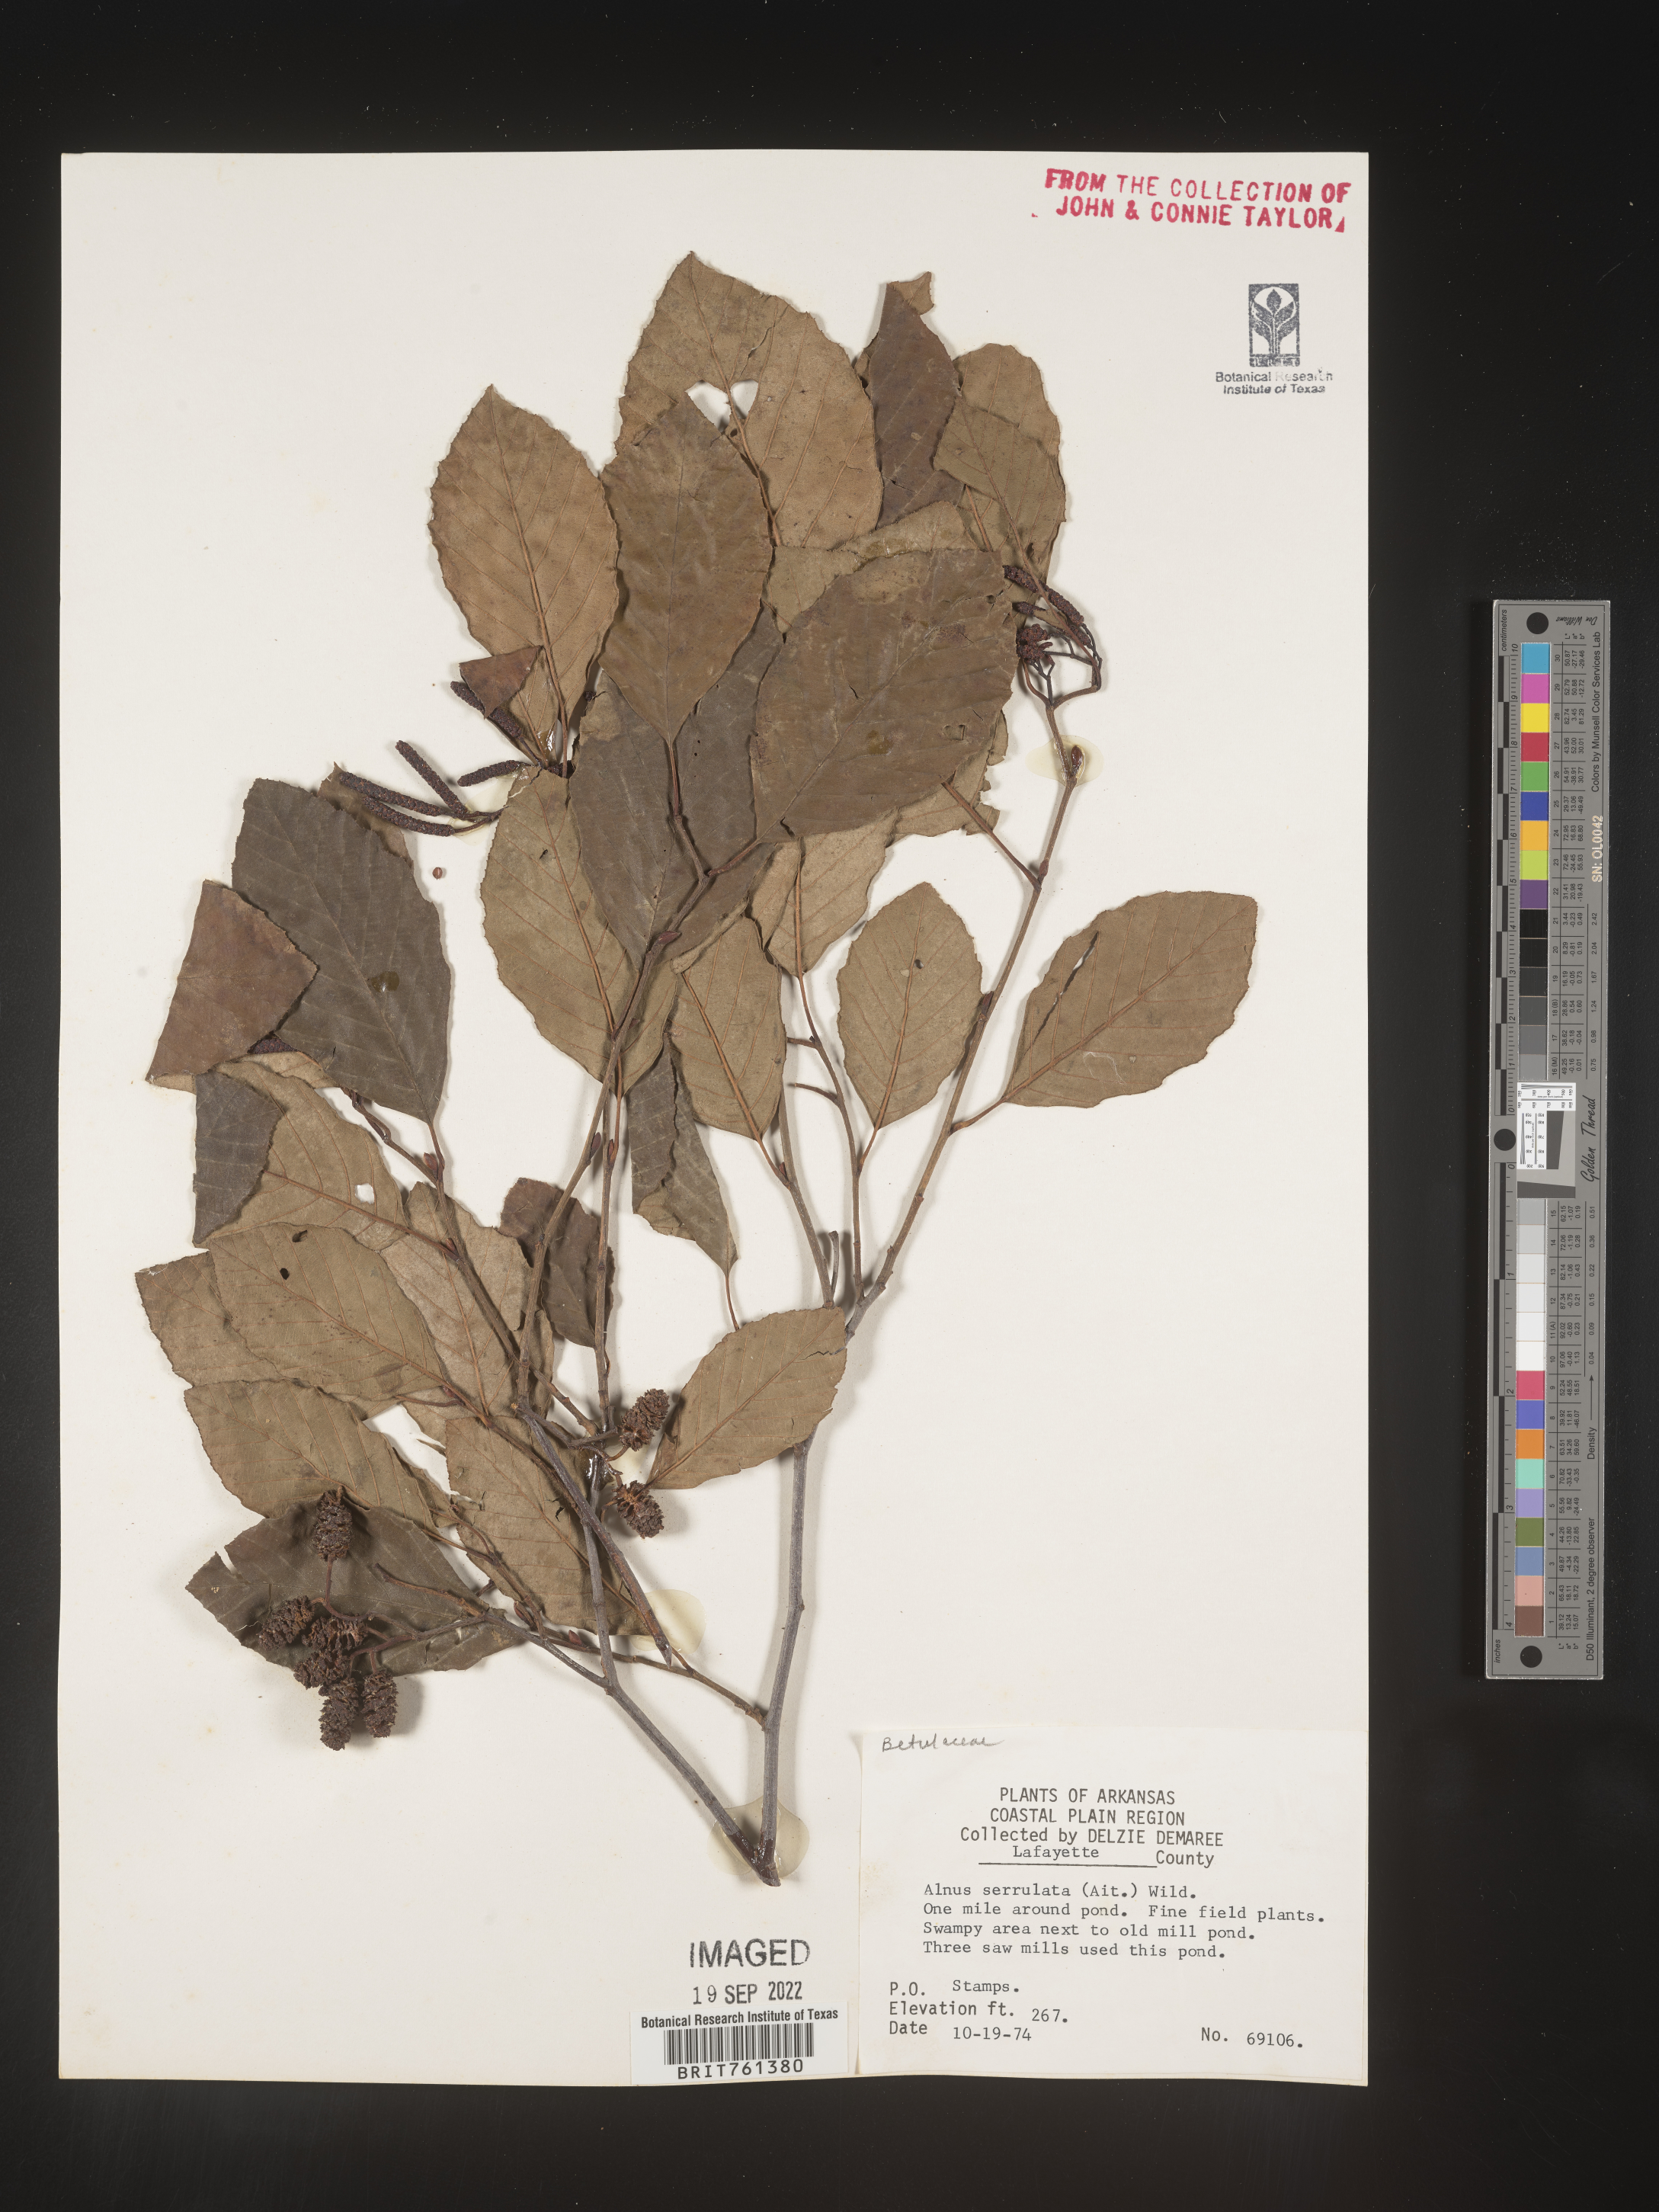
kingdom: Plantae
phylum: Tracheophyta
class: Magnoliopsida
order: Fagales
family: Betulaceae
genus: Alnus
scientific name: Alnus serrulata
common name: Hazel alder
